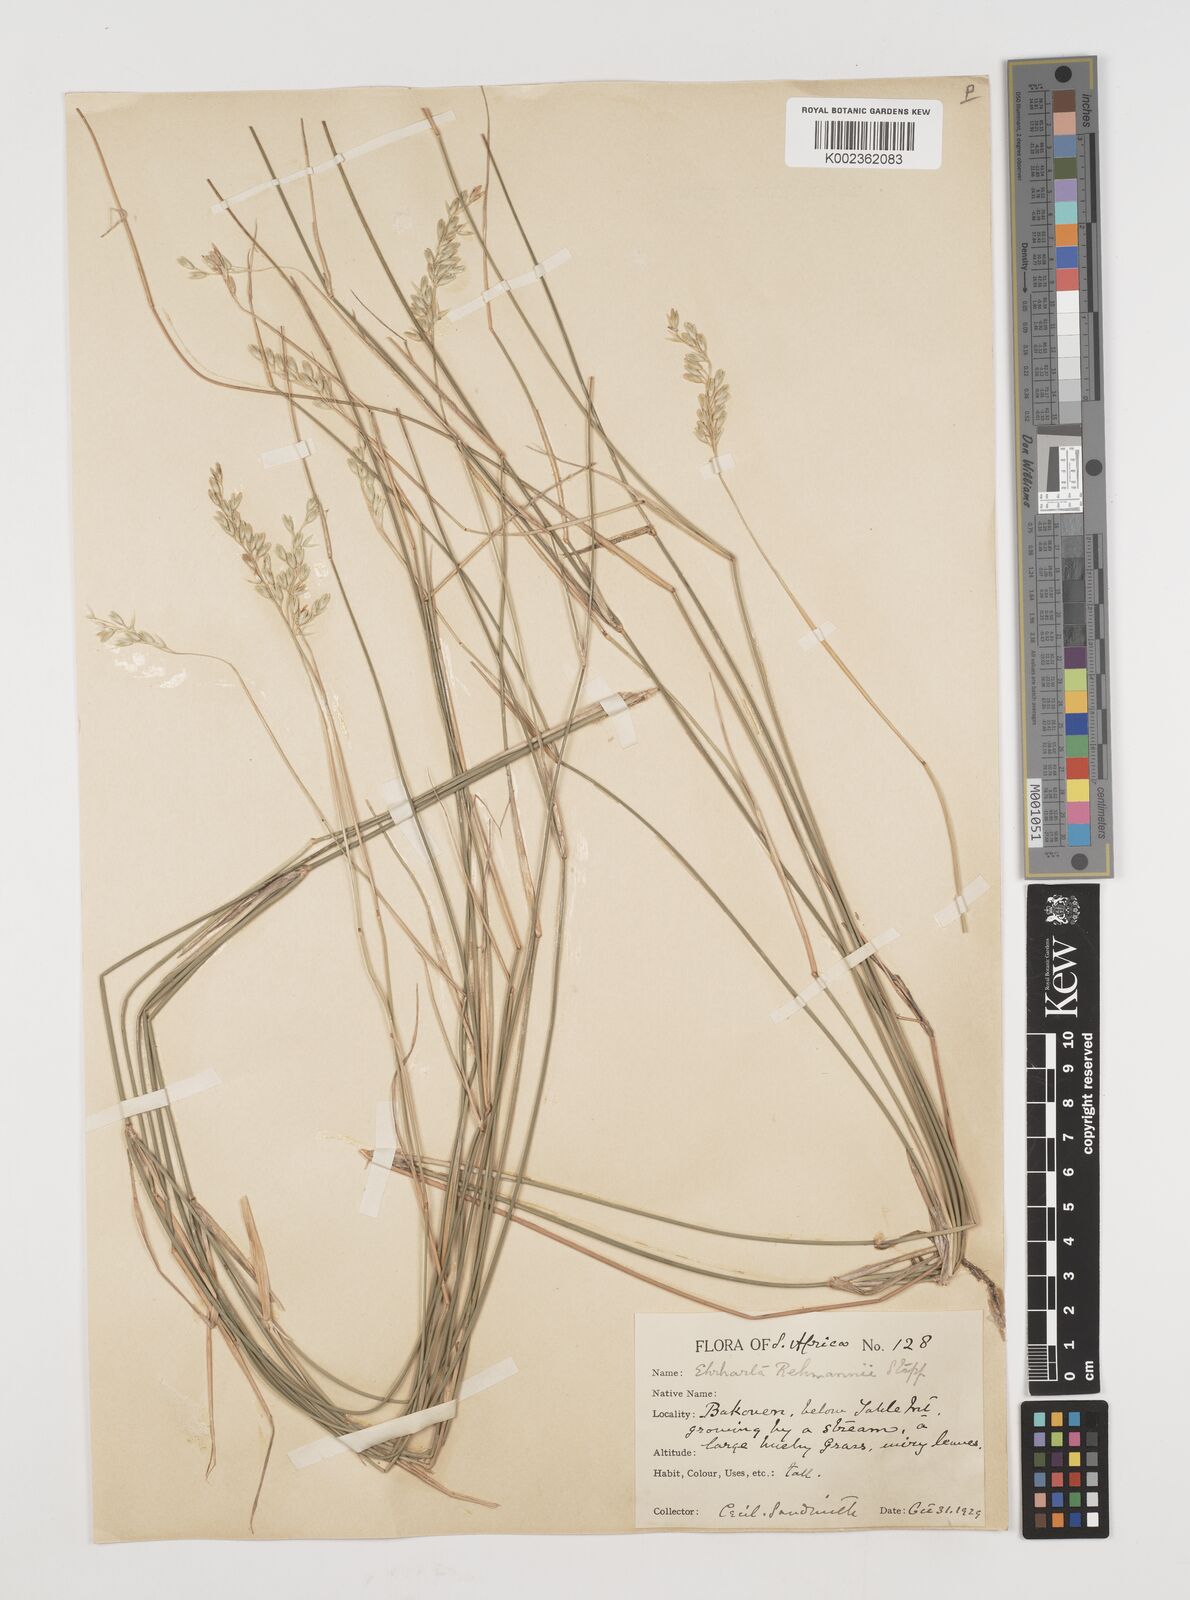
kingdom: Plantae
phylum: Tracheophyta
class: Liliopsida
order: Poales
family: Poaceae
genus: Ehrharta
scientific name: Ehrharta digyna
